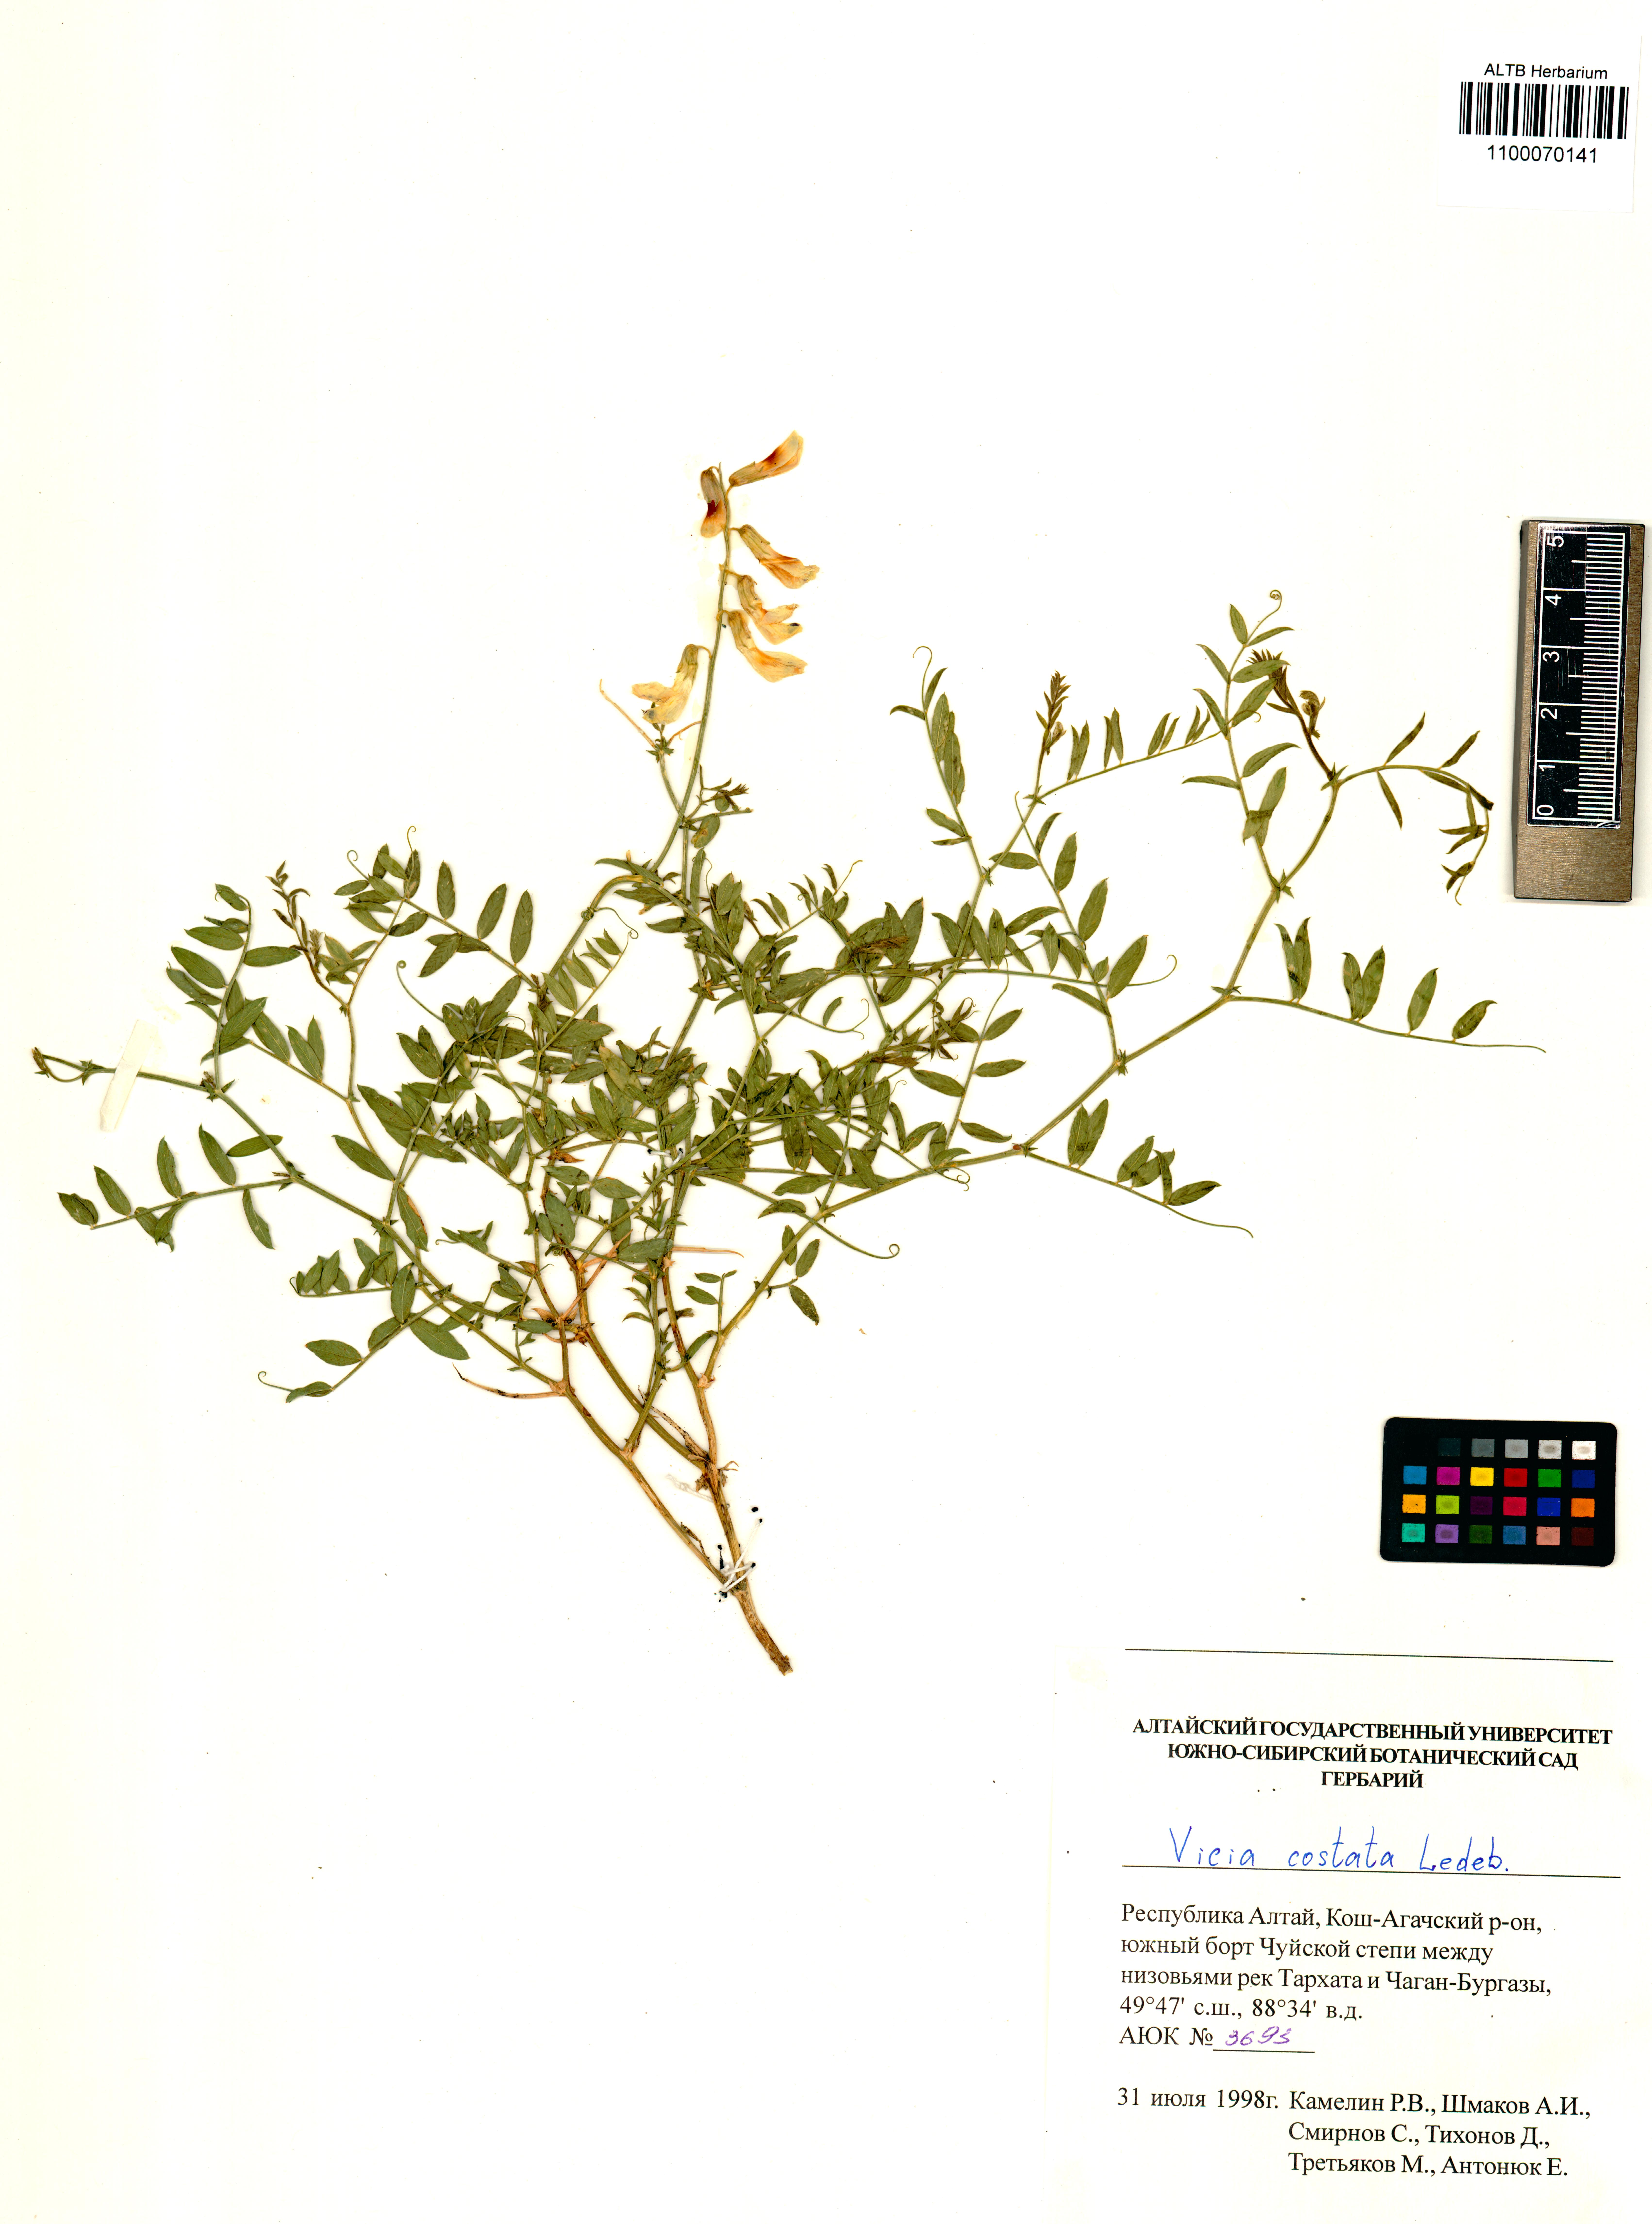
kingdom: Plantae
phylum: Tracheophyta
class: Magnoliopsida
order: Fabales
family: Fabaceae
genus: Vicia
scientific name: Vicia costata
